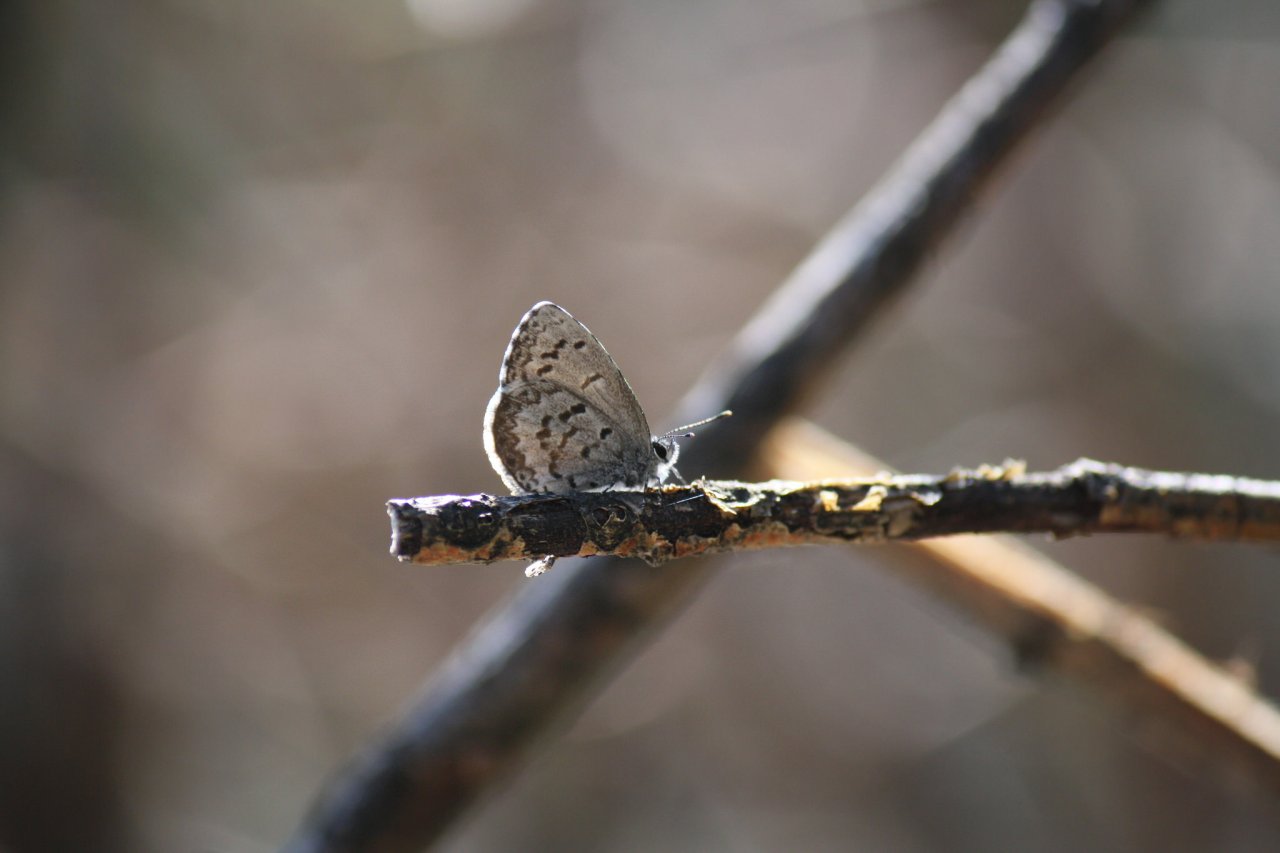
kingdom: Animalia
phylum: Arthropoda
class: Insecta
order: Lepidoptera
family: Lycaenidae
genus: Celastrina
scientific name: Celastrina lucia
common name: Northern Spring Azure
